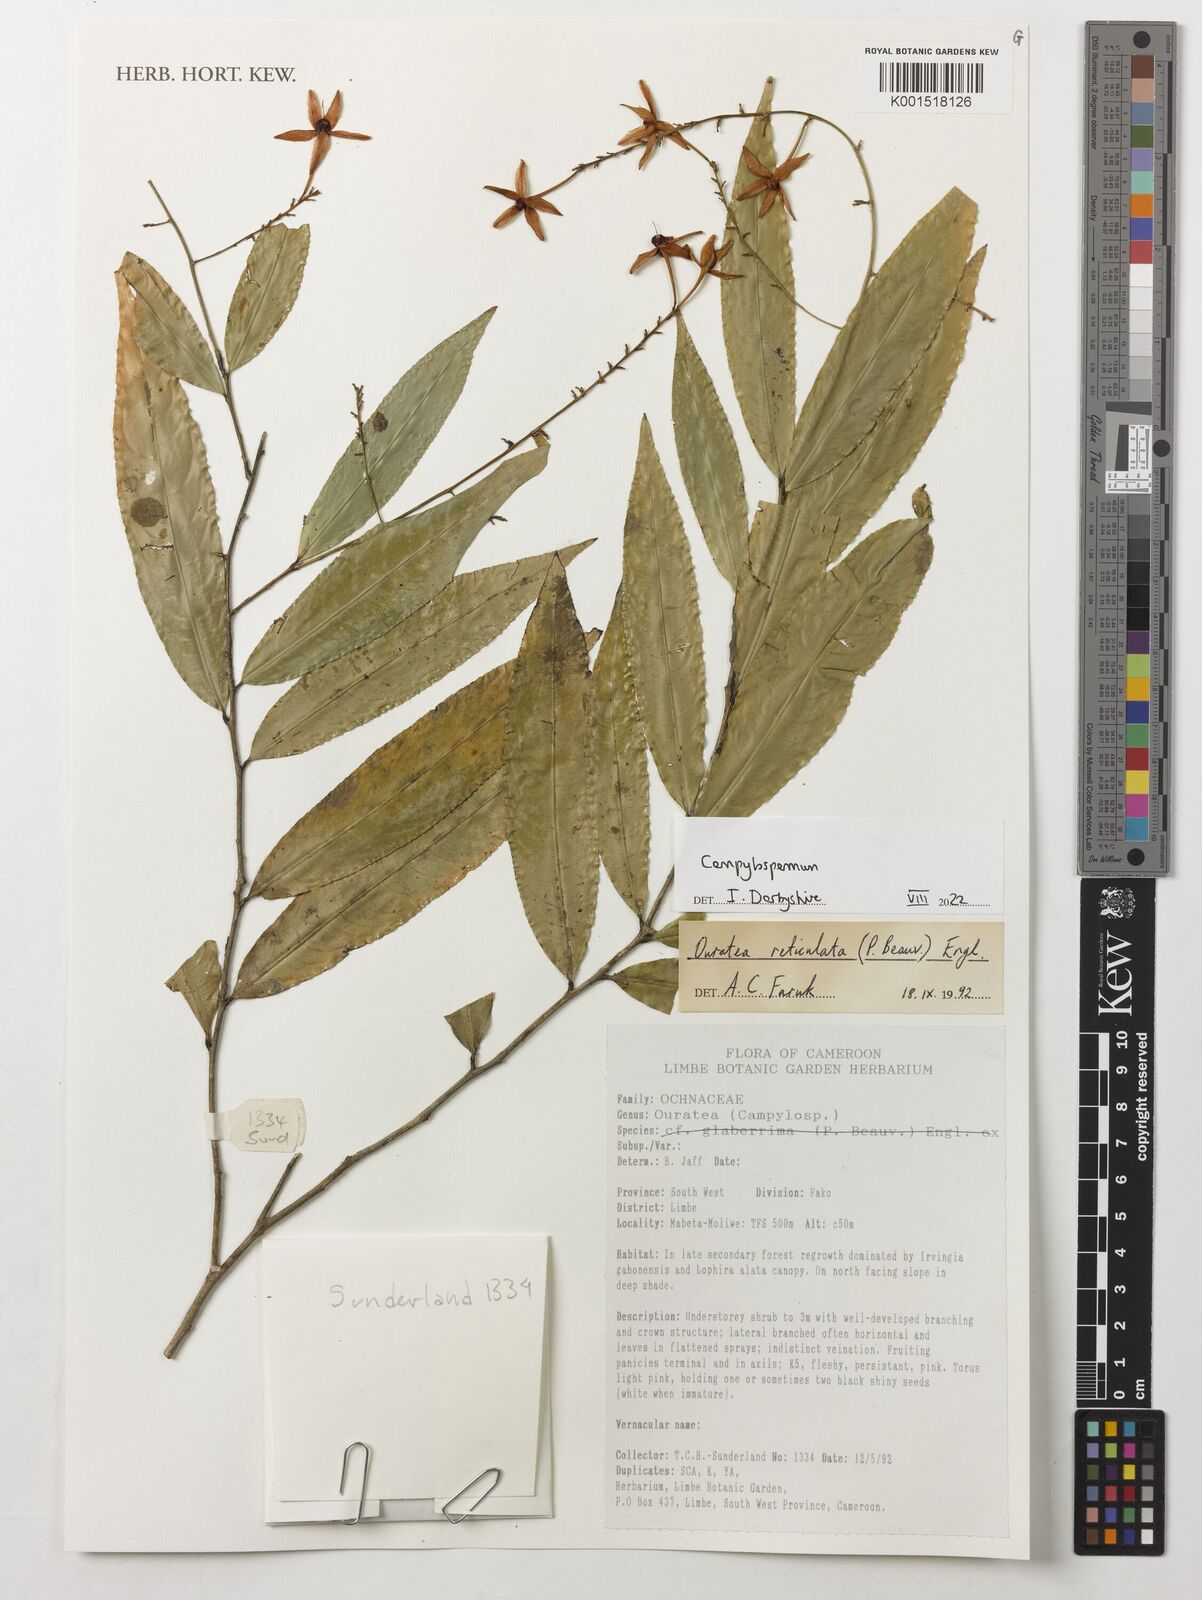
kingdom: Plantae
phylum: Tracheophyta
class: Magnoliopsida
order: Malpighiales
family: Ochnaceae
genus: Campylospermum
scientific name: Campylospermum
